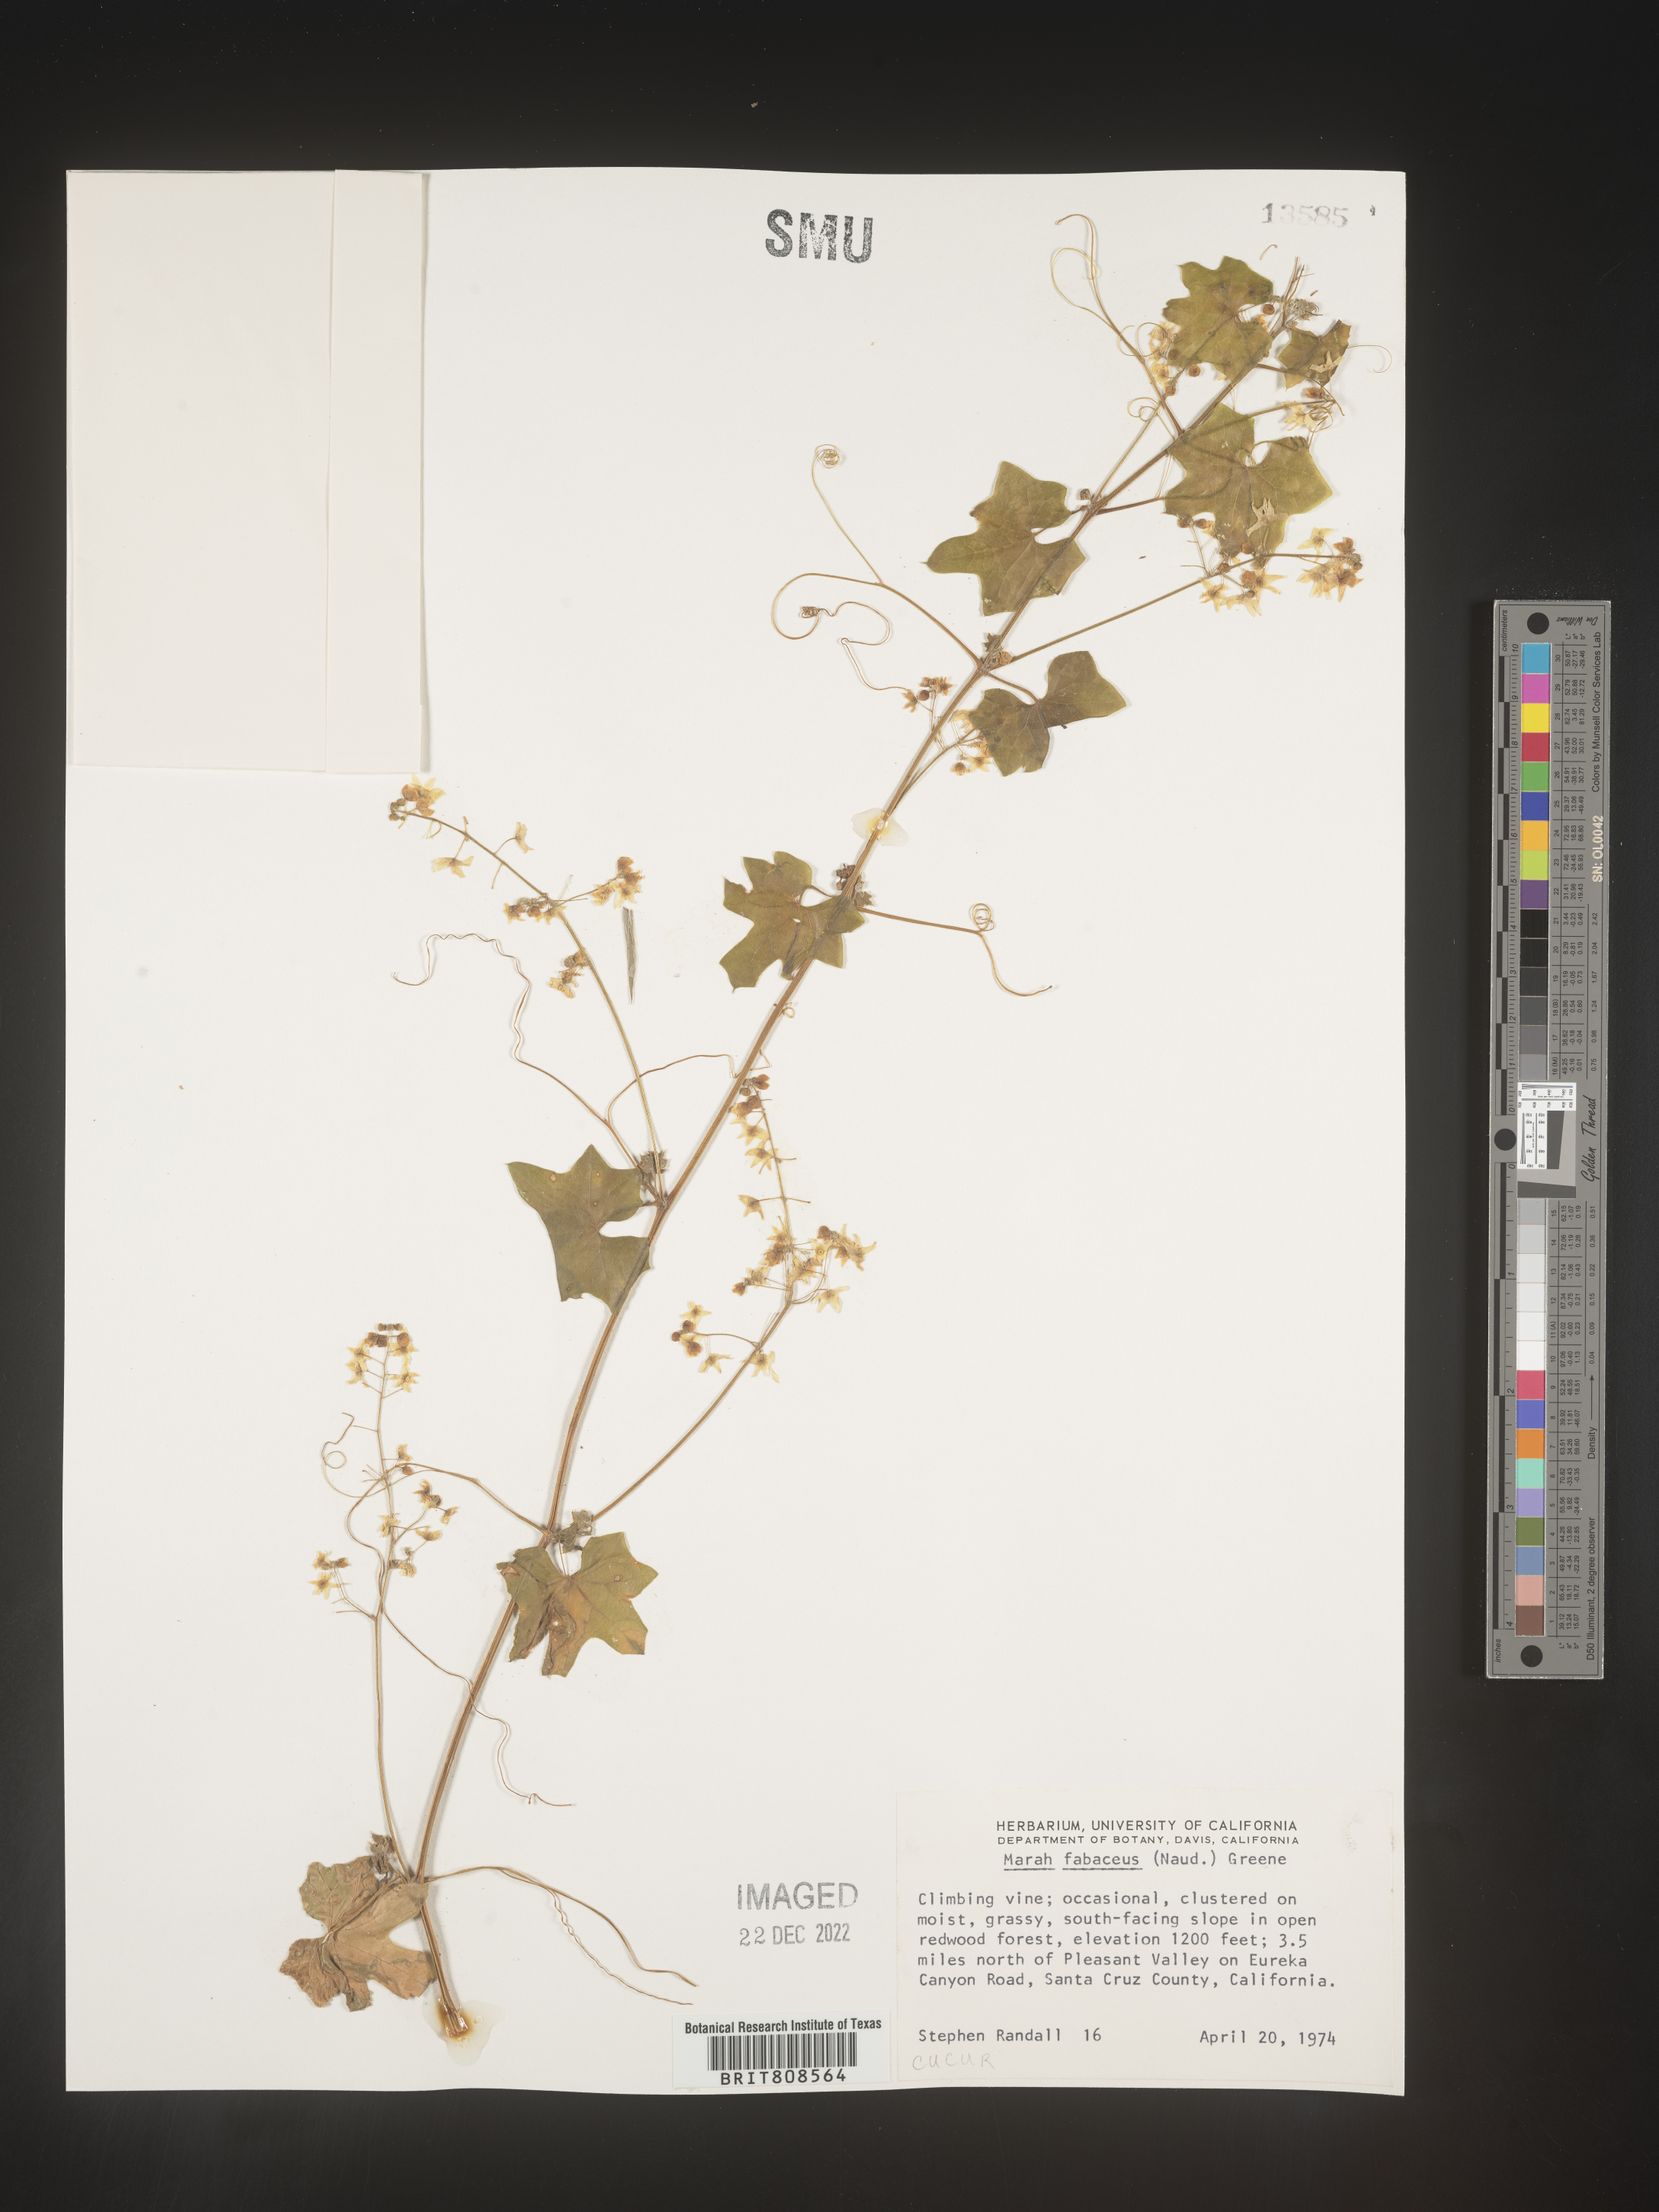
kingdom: Plantae
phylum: Tracheophyta
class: Magnoliopsida
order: Cucurbitales
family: Cucurbitaceae
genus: Marah
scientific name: Marah
